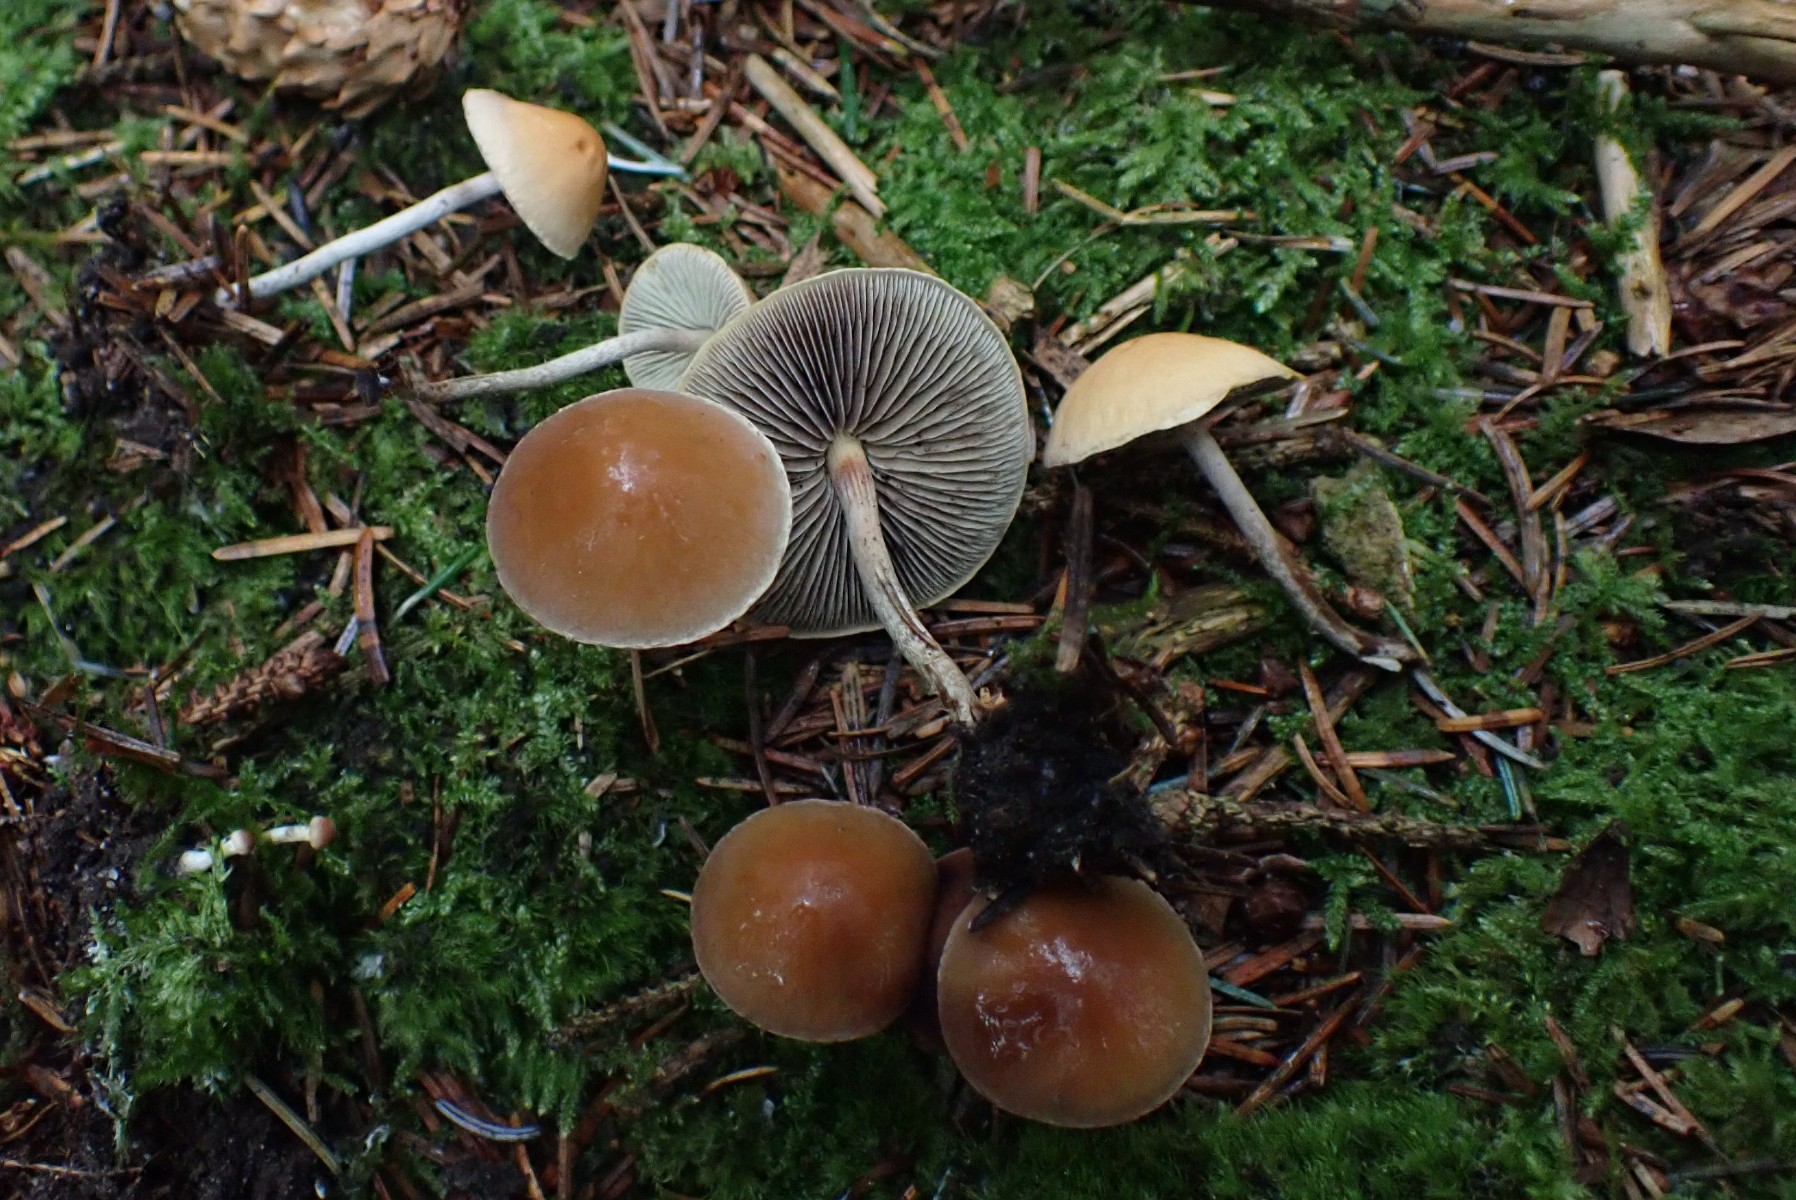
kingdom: Fungi
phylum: Basidiomycota
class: Agaricomycetes
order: Agaricales
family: Strophariaceae
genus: Hypholoma
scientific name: Hypholoma marginatum
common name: enlig svovlhat
